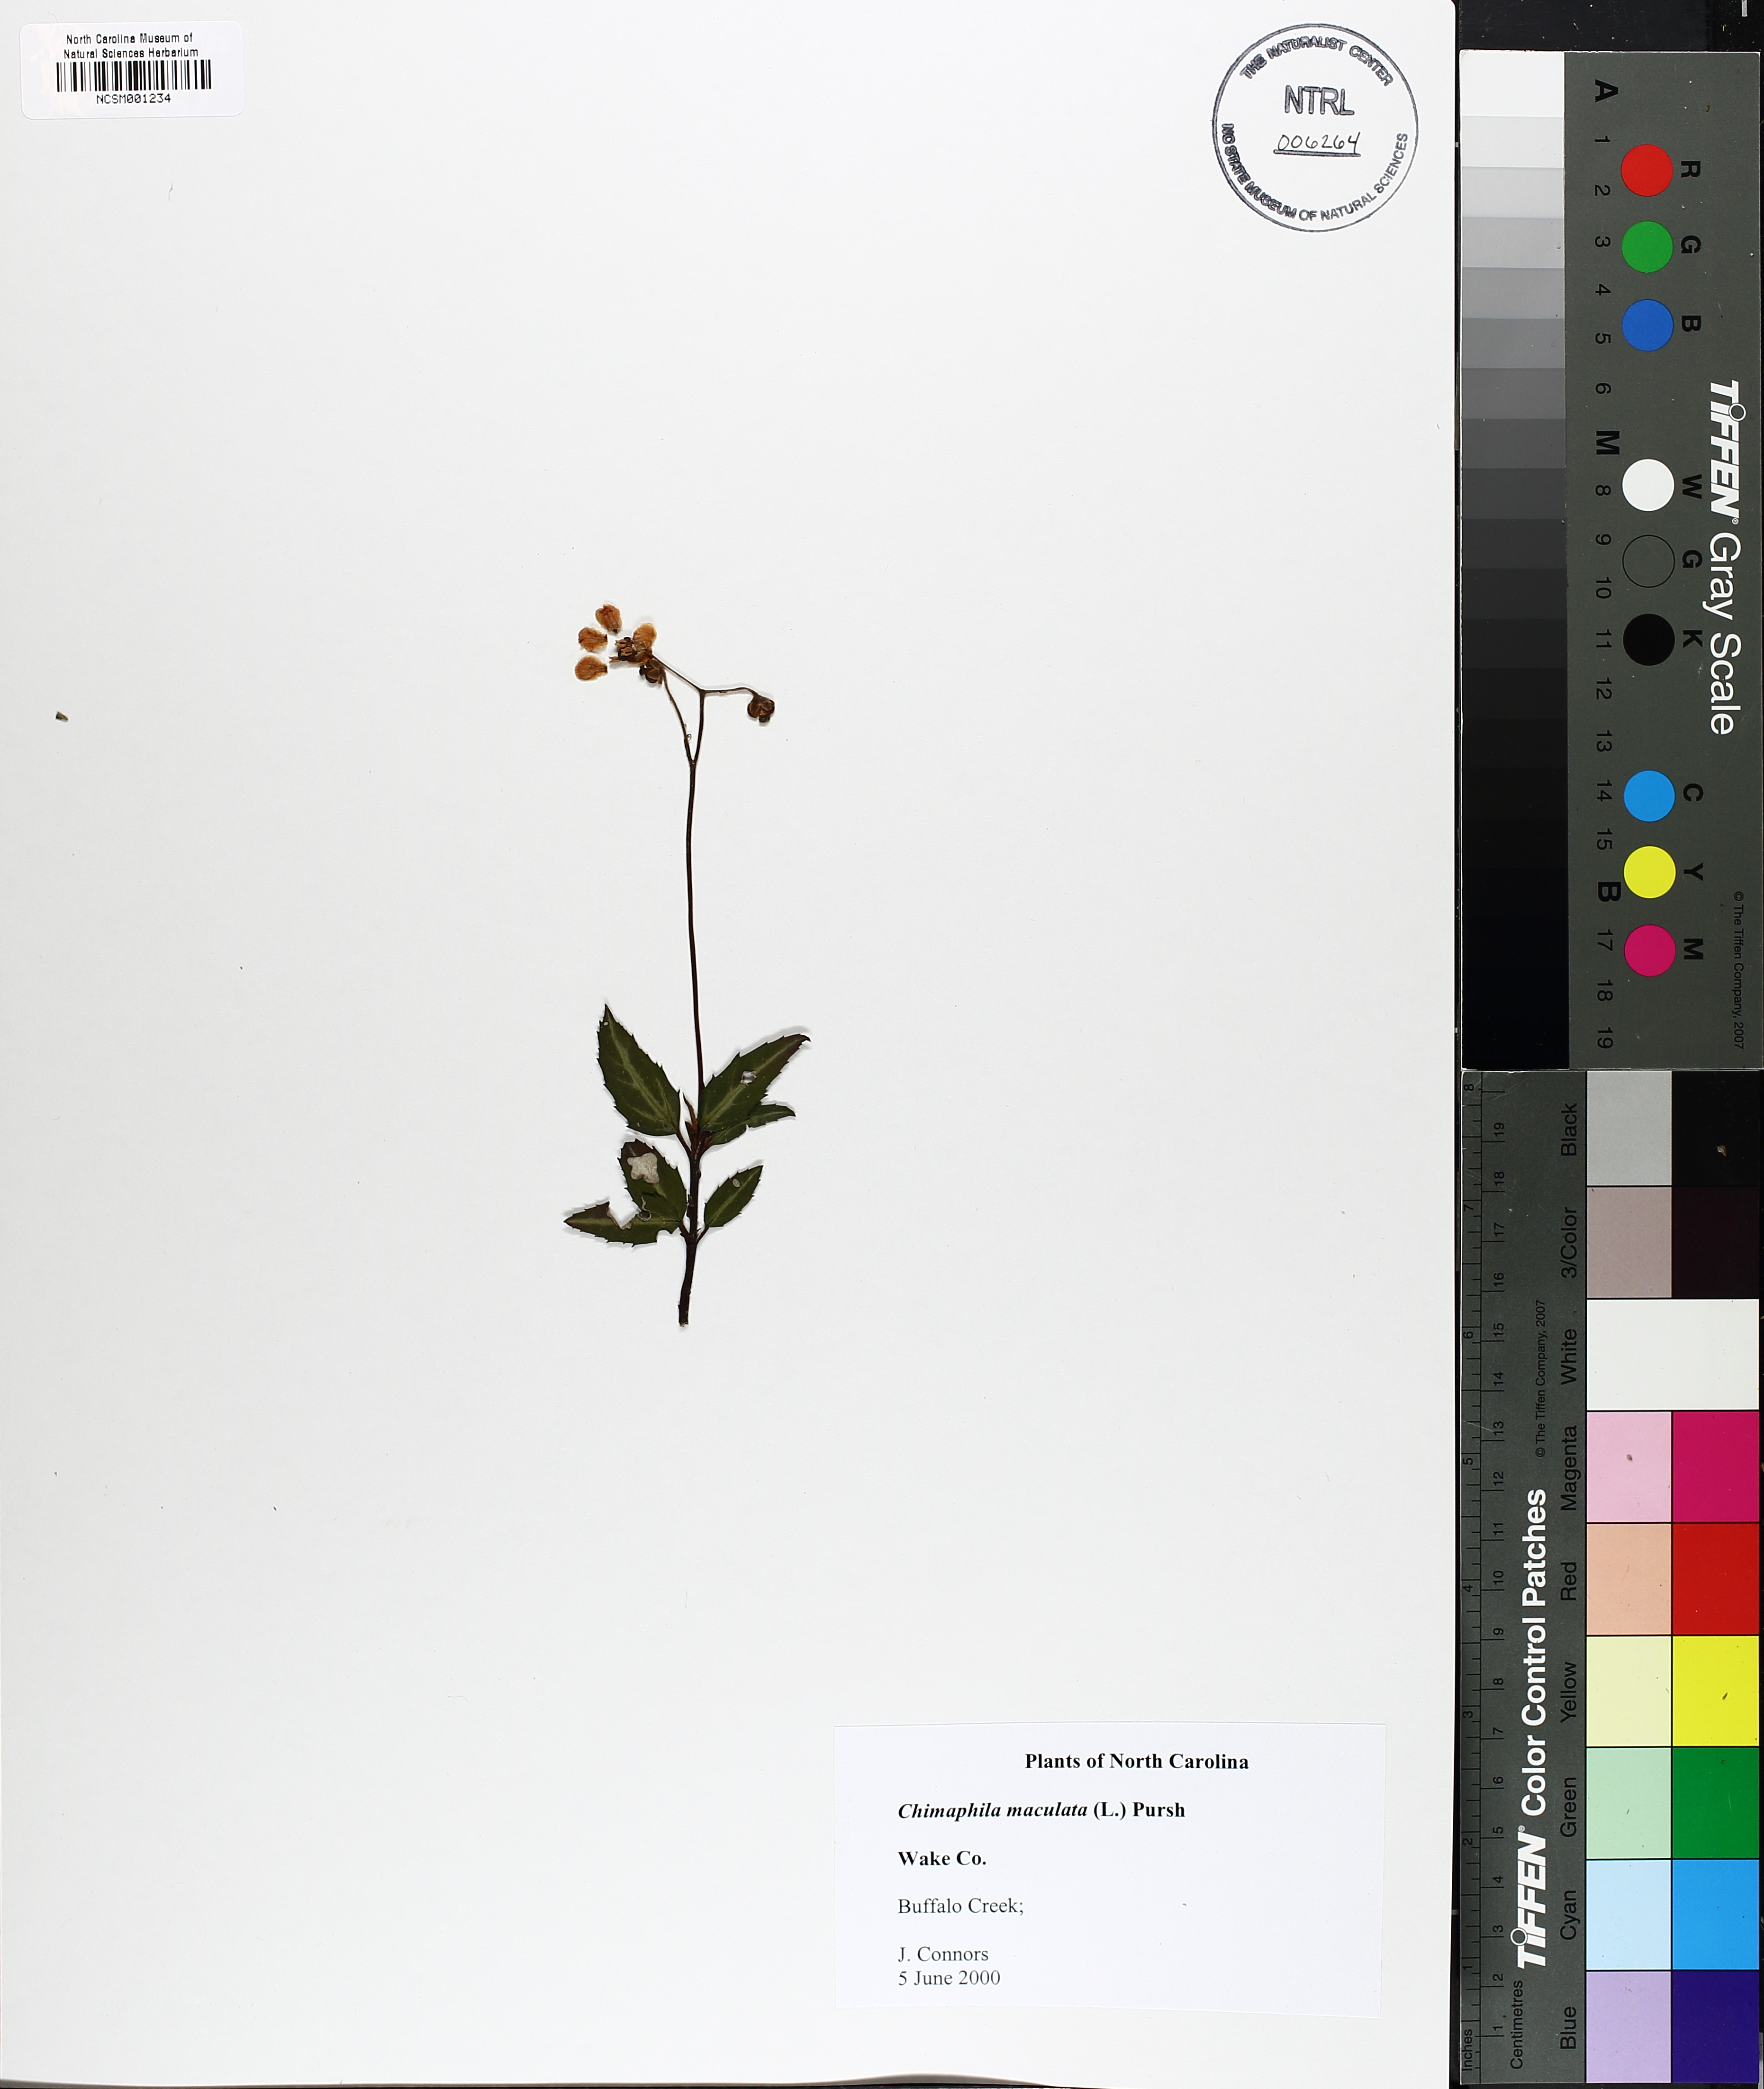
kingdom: Plantae
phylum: Tracheophyta
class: Magnoliopsida
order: Ericales
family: Ericaceae
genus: Chimaphila
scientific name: Chimaphila maculata
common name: Spotted pipsissewa
